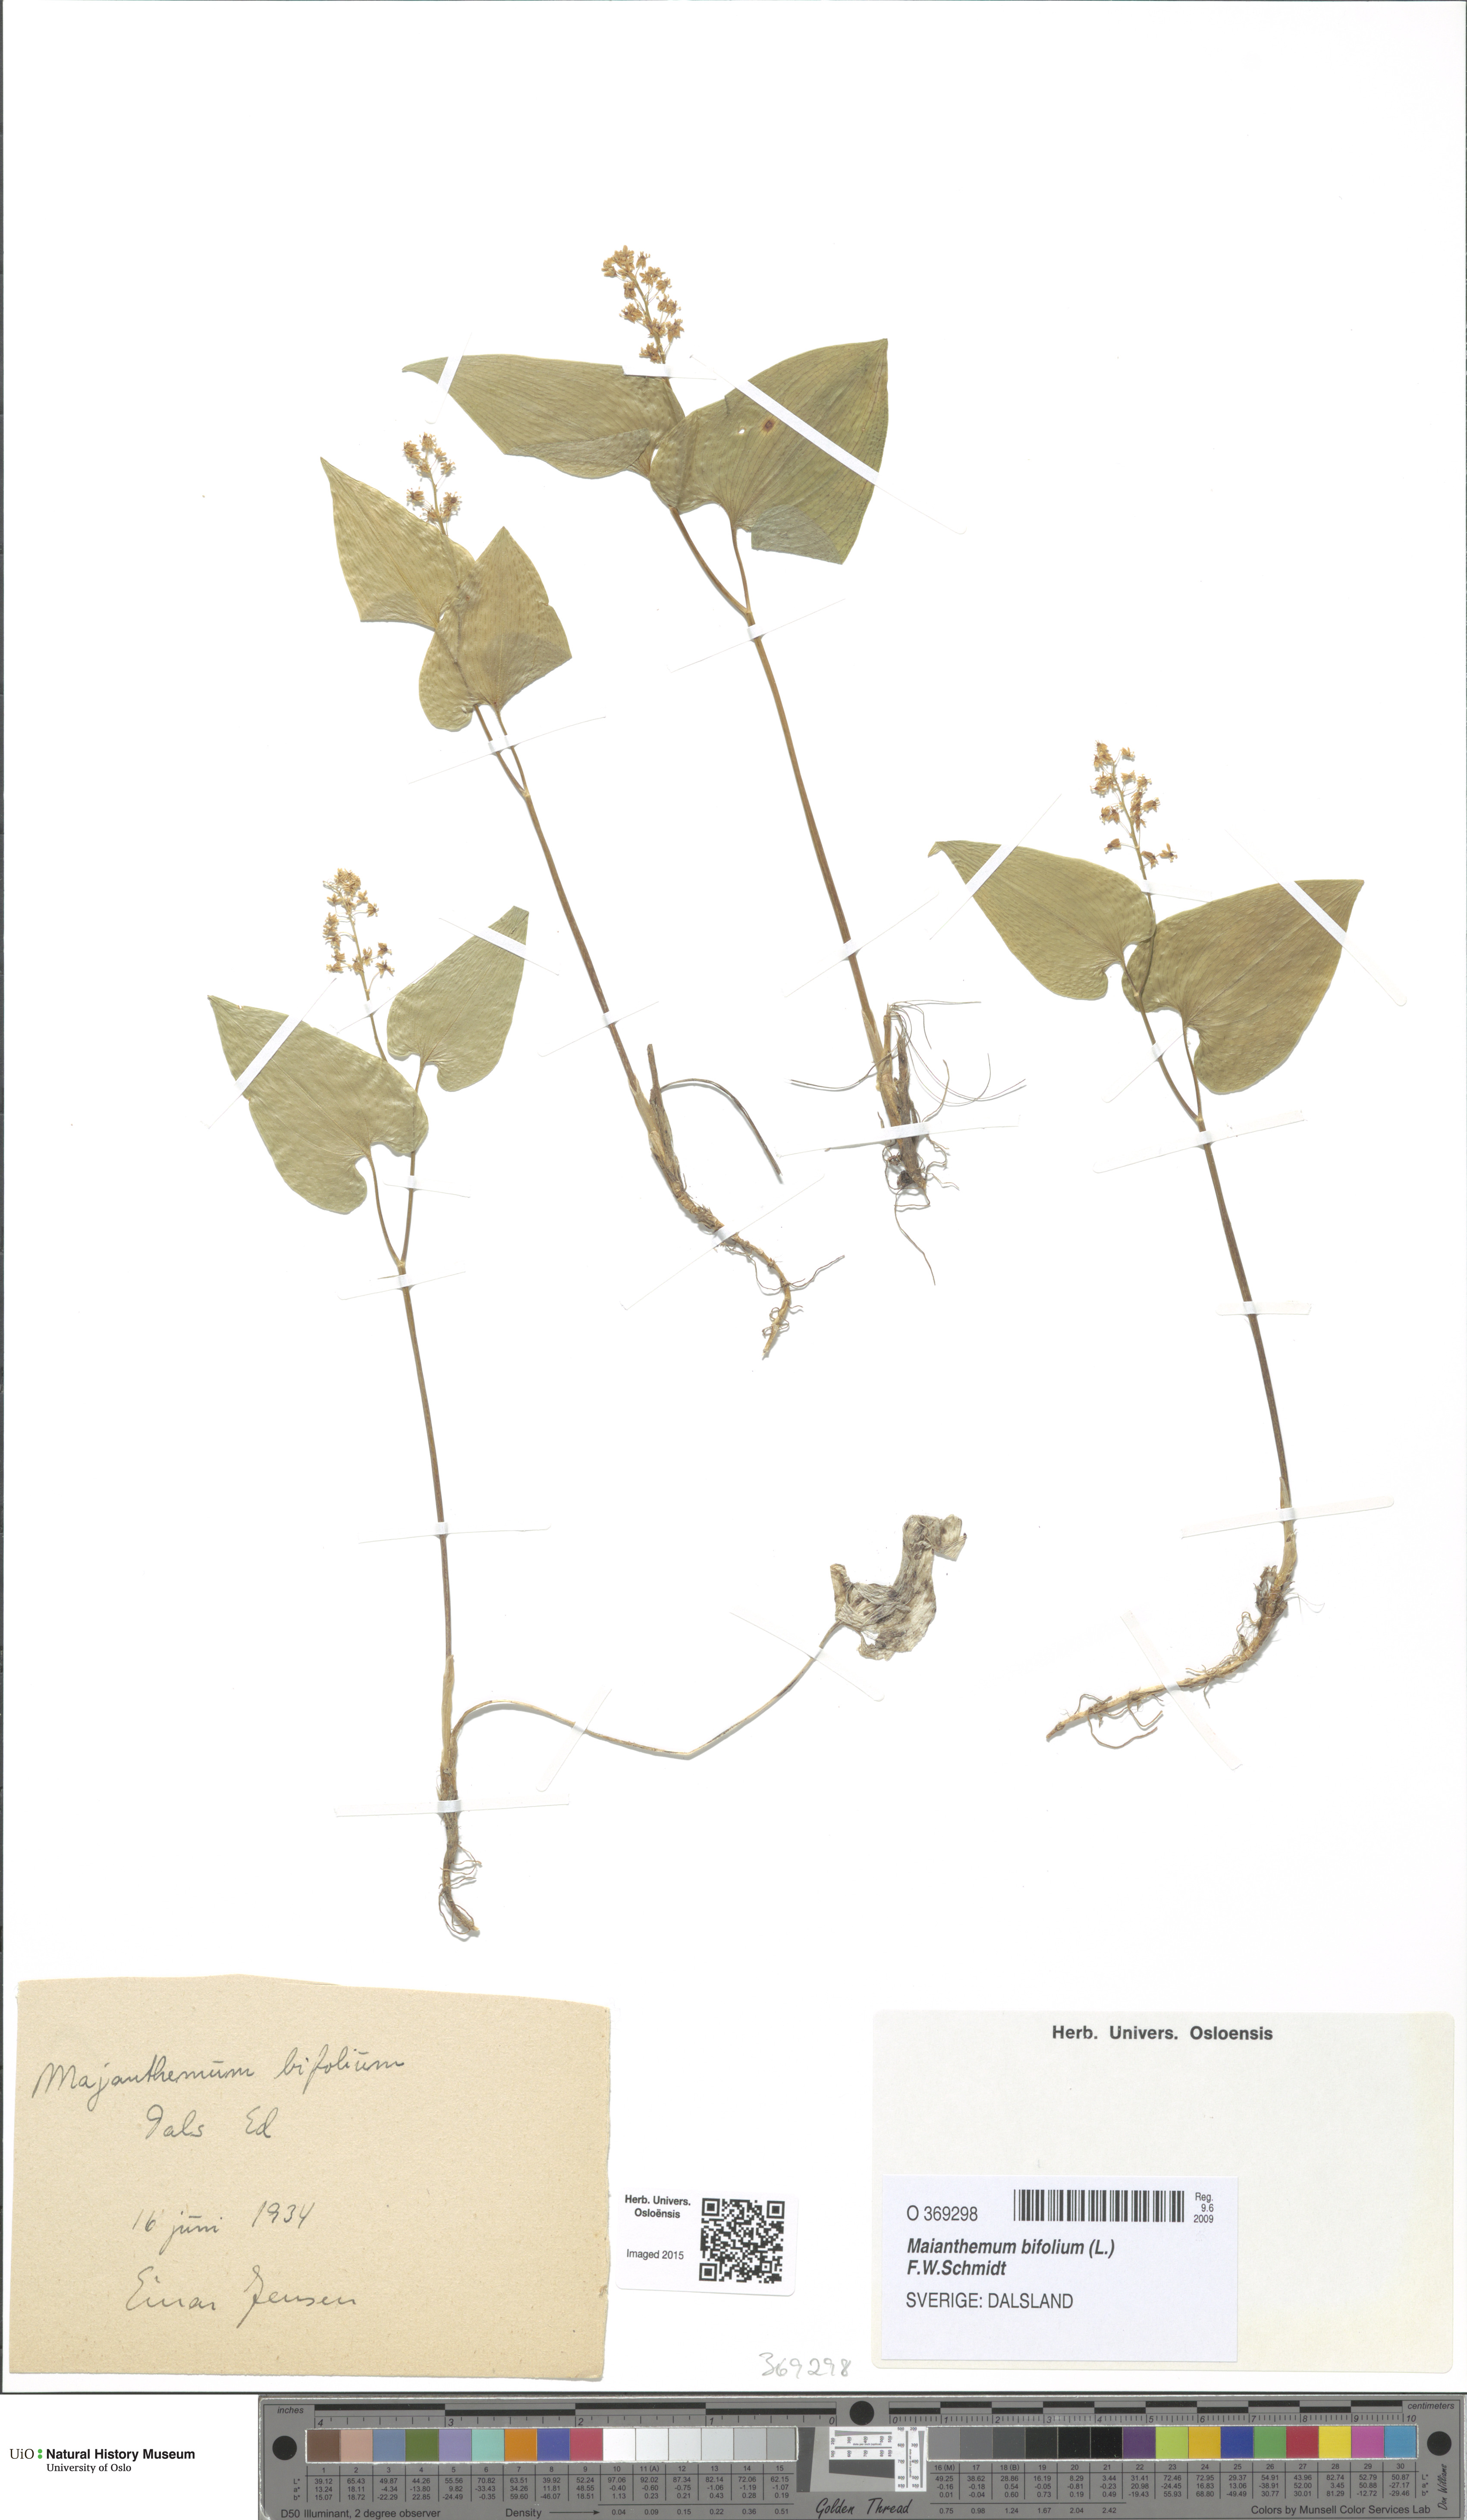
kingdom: Plantae
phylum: Tracheophyta
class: Liliopsida
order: Asparagales
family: Asparagaceae
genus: Maianthemum
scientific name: Maianthemum bifolium
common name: May lily
